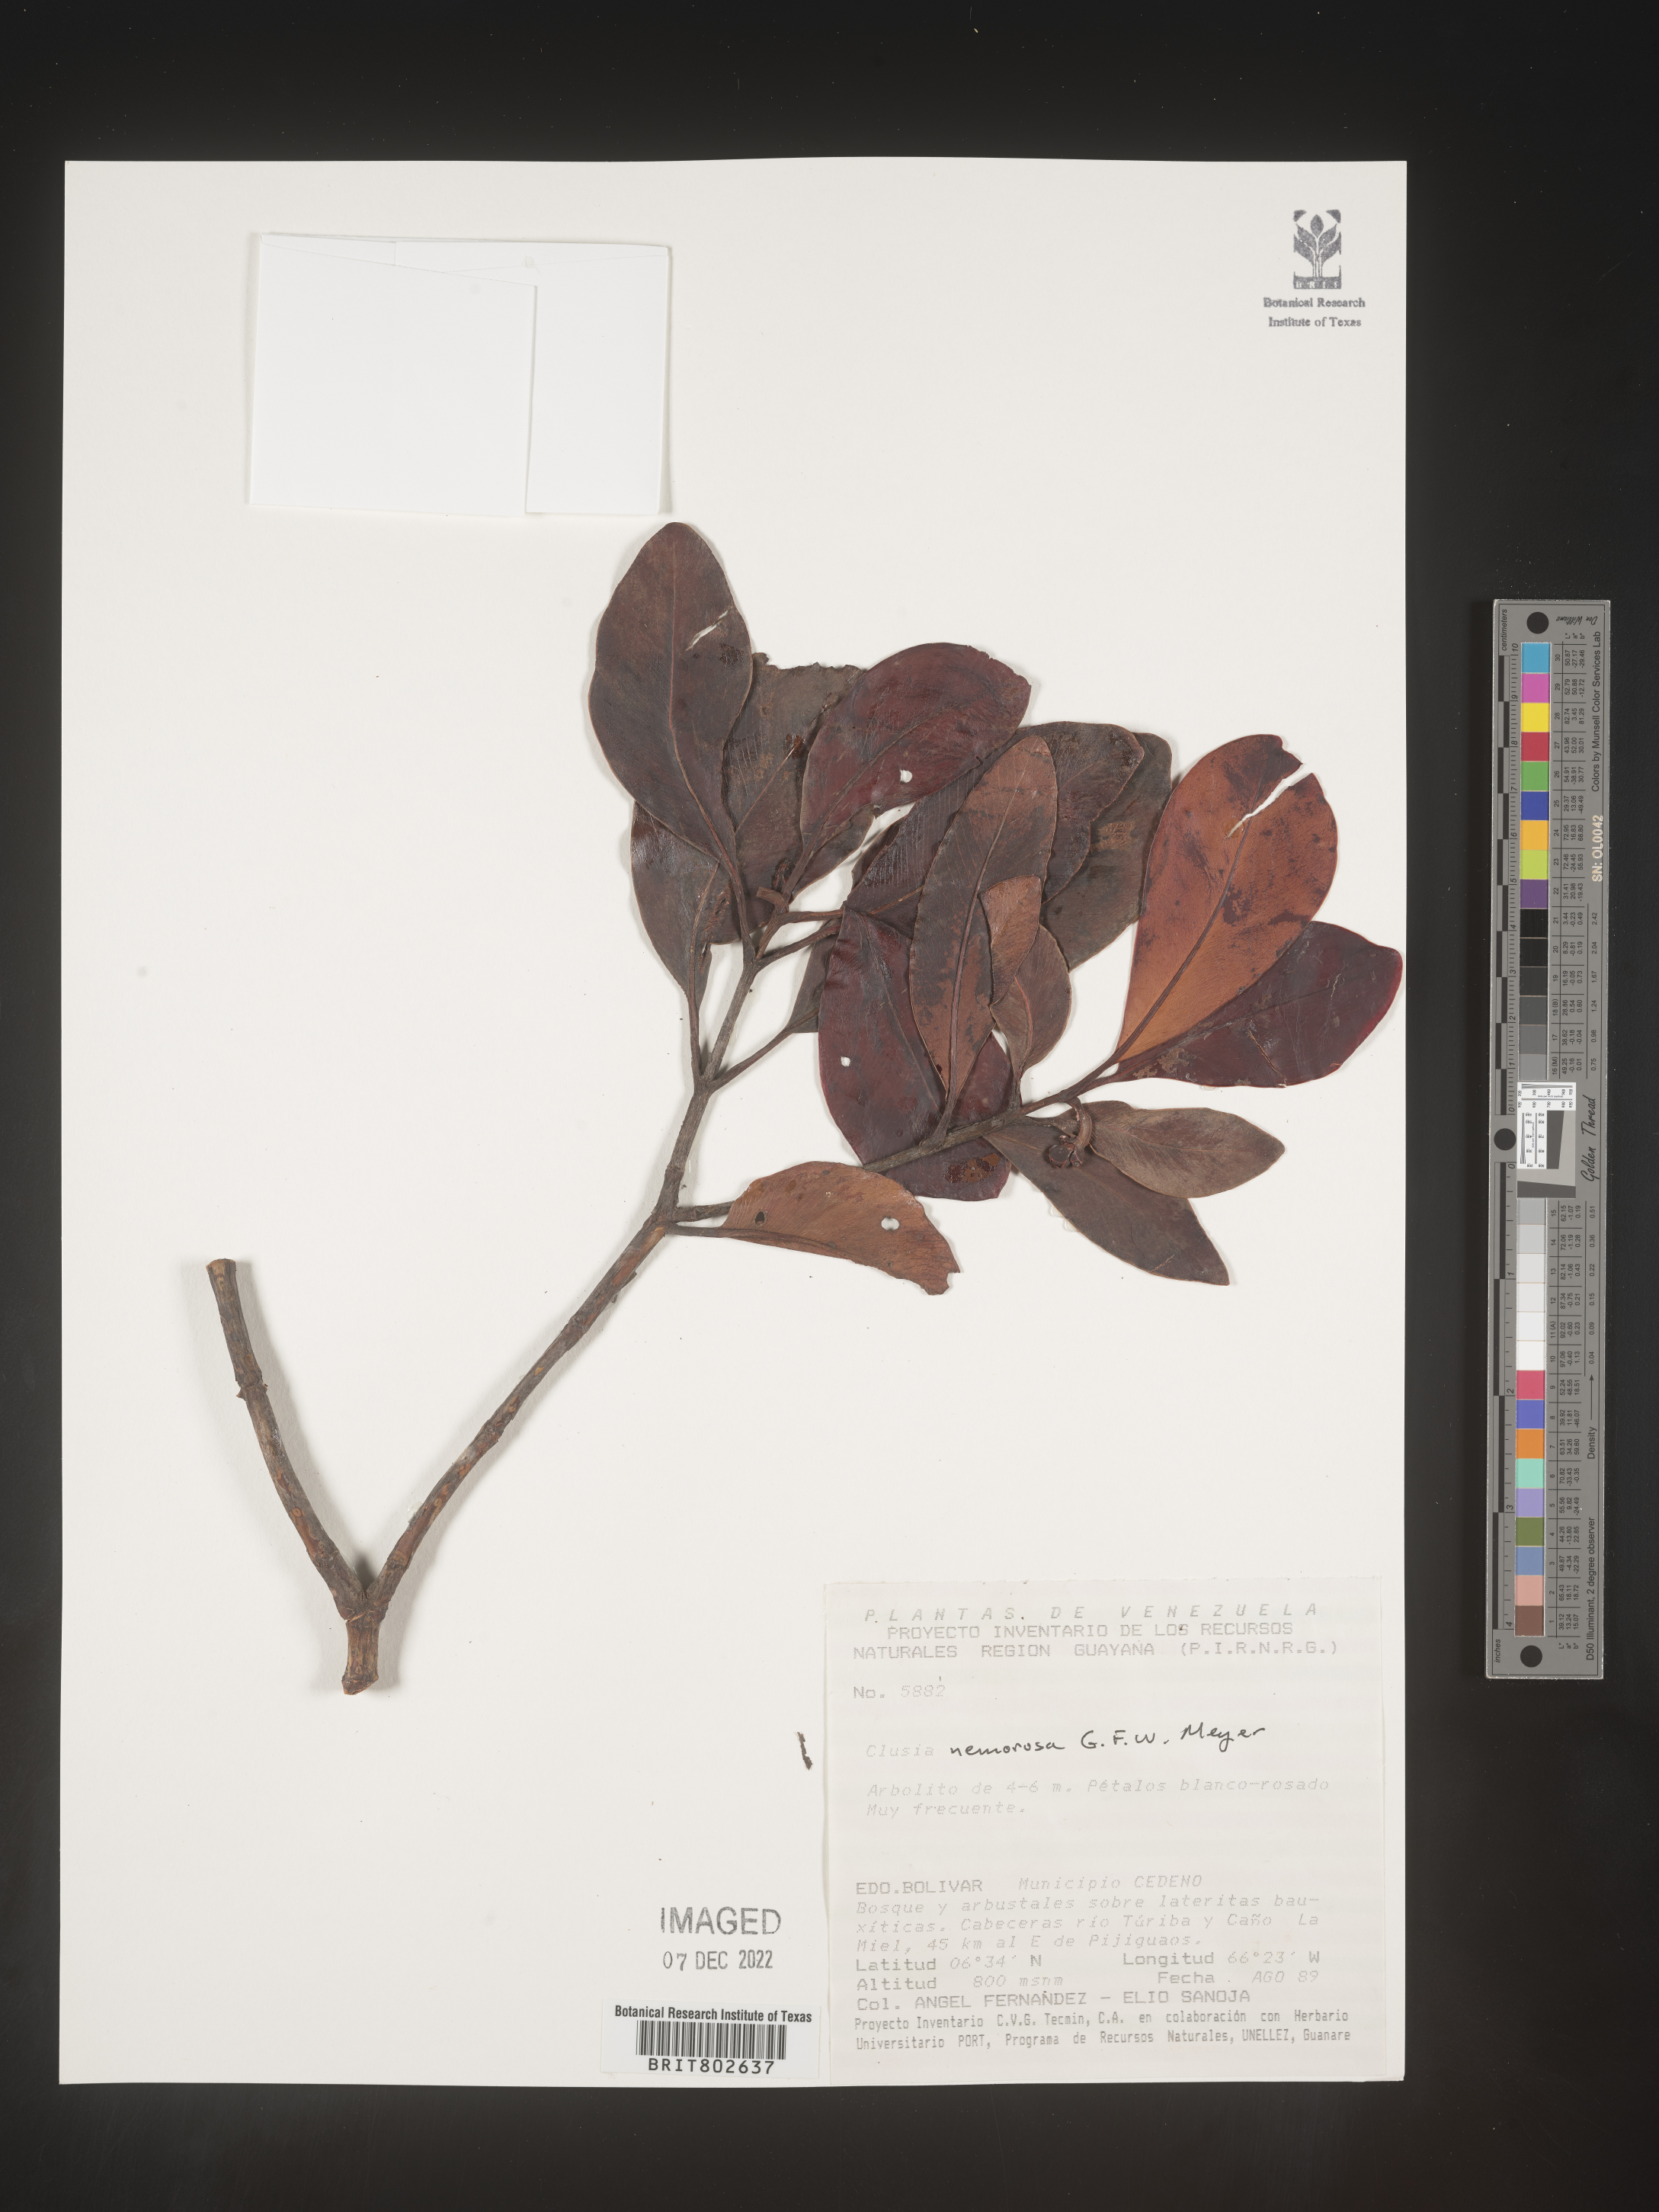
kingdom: Plantae
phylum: Tracheophyta
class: Magnoliopsida
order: Malpighiales
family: Clusiaceae
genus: Clusia
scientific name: Clusia nemorosa
